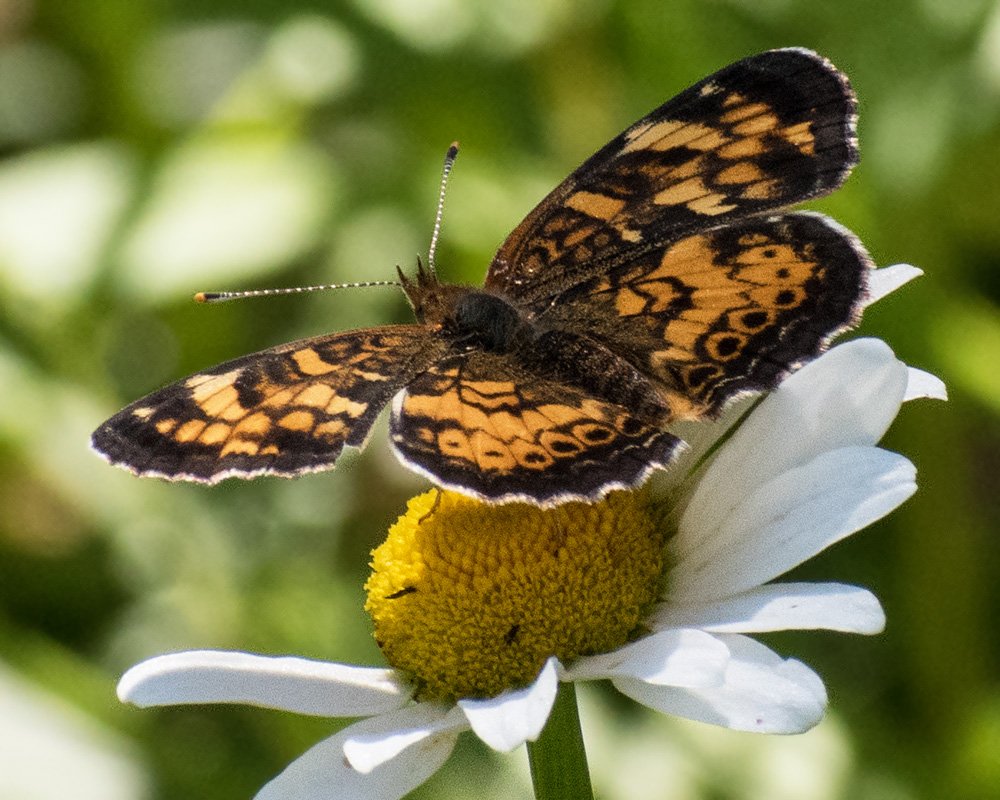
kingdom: Animalia
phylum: Arthropoda
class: Insecta
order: Lepidoptera
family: Nymphalidae
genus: Phyciodes
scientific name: Phyciodes tharos
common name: Field Crescent
